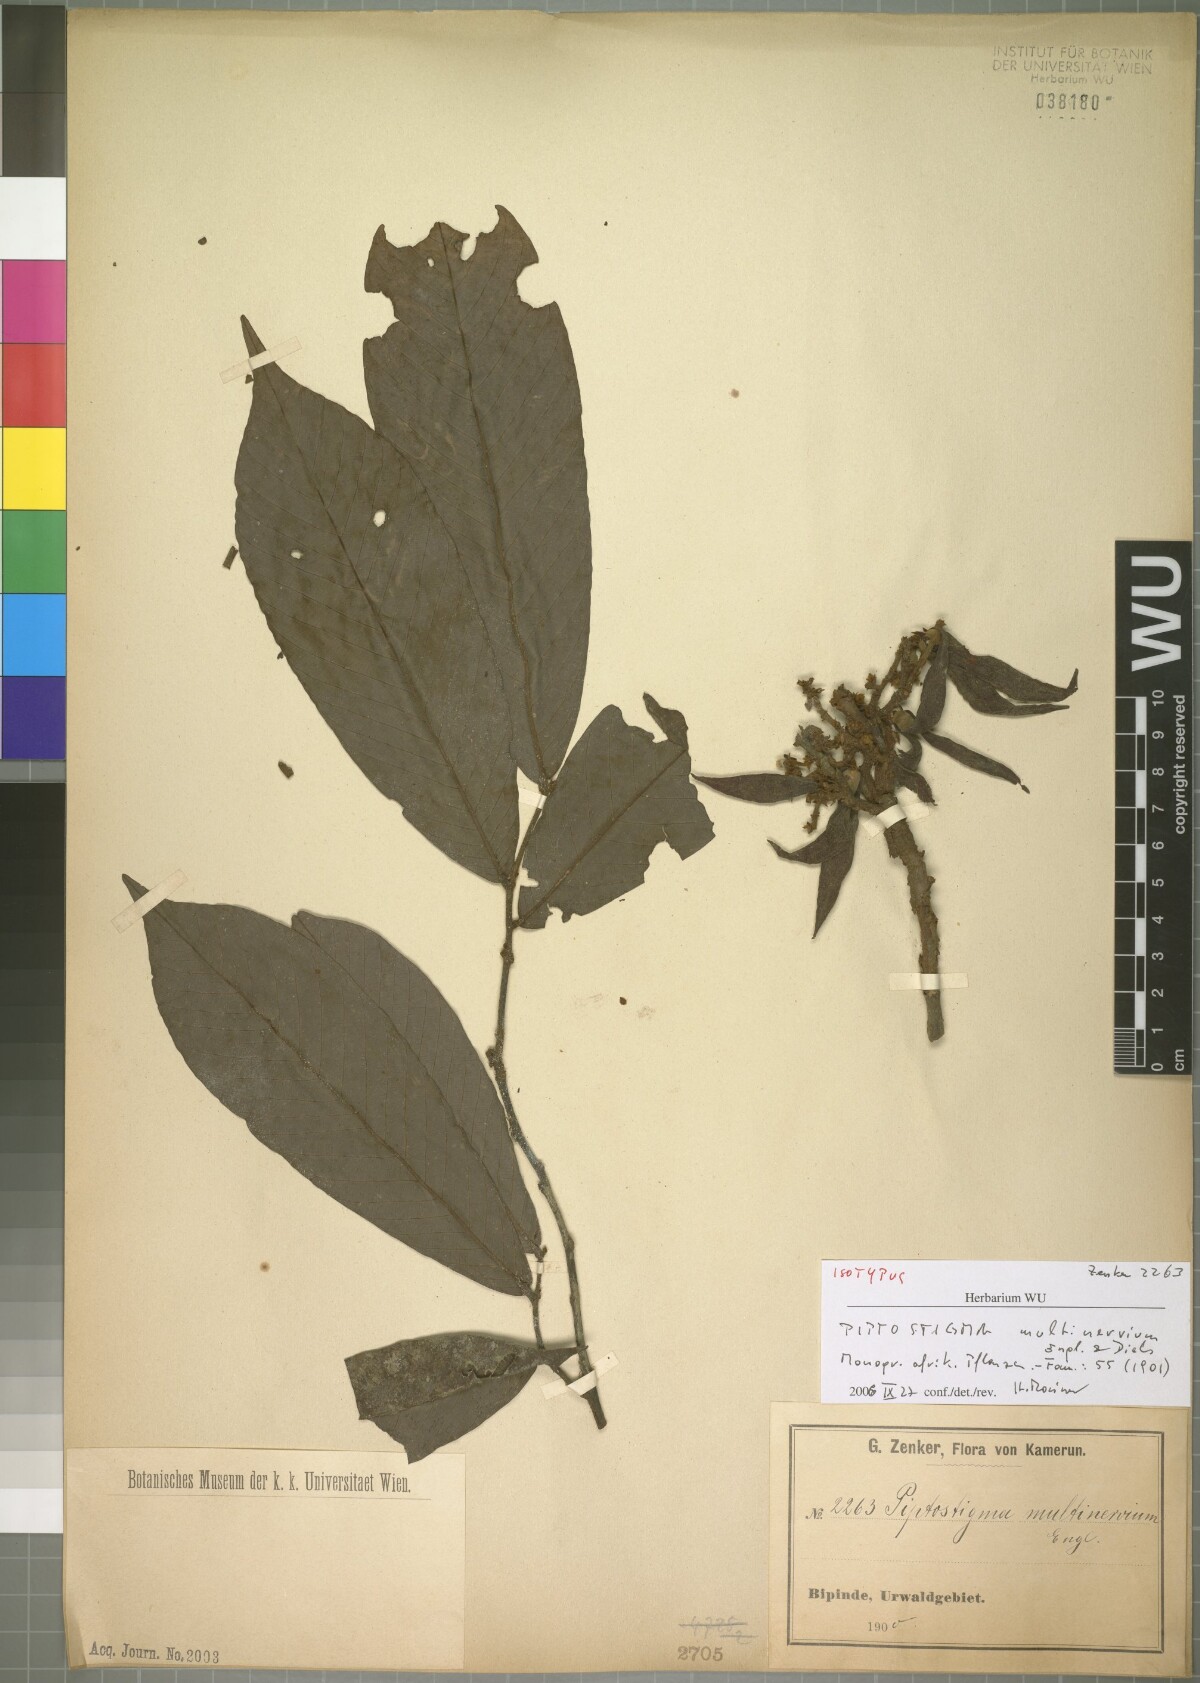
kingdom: Plantae
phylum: Tracheophyta
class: Magnoliopsida
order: Magnoliales
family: Annonaceae
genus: Piptostigma
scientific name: Piptostigma multinervium
